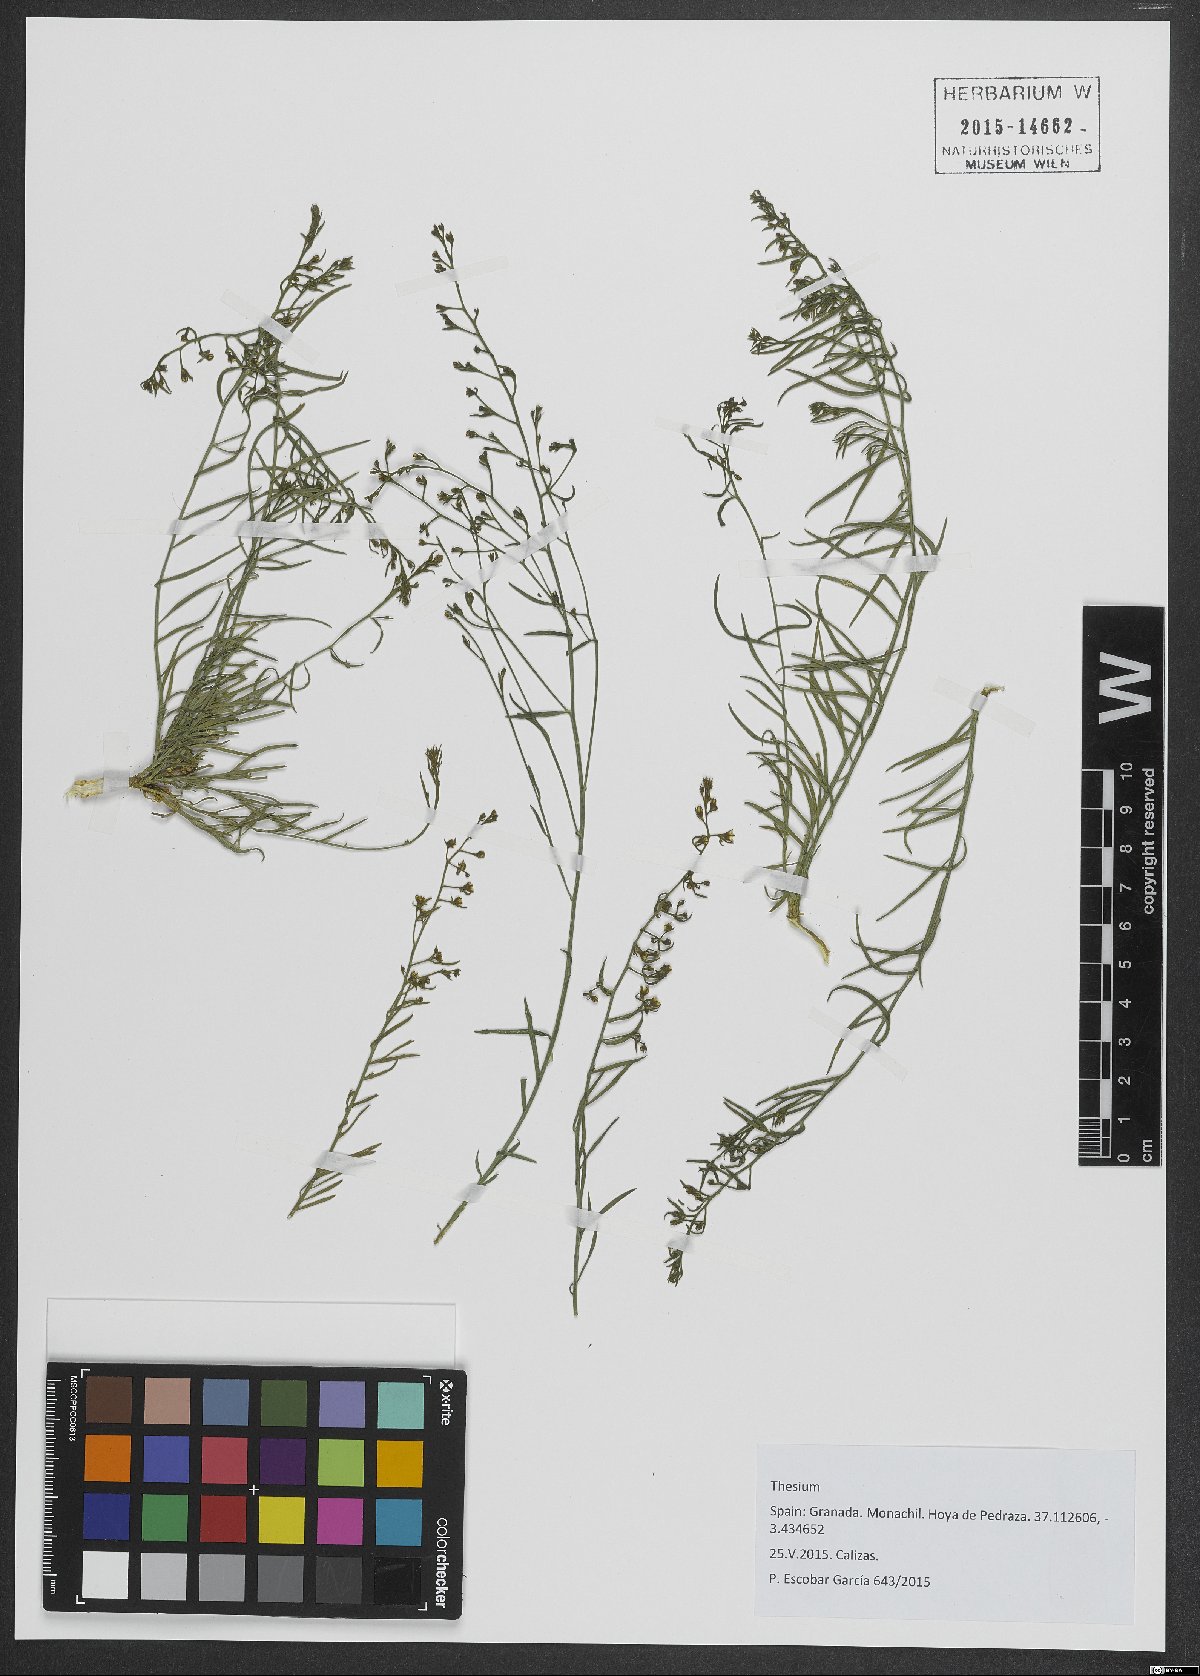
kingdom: Plantae
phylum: Tracheophyta
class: Magnoliopsida
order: Santalales
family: Thesiaceae
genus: Thesium
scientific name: Thesium
